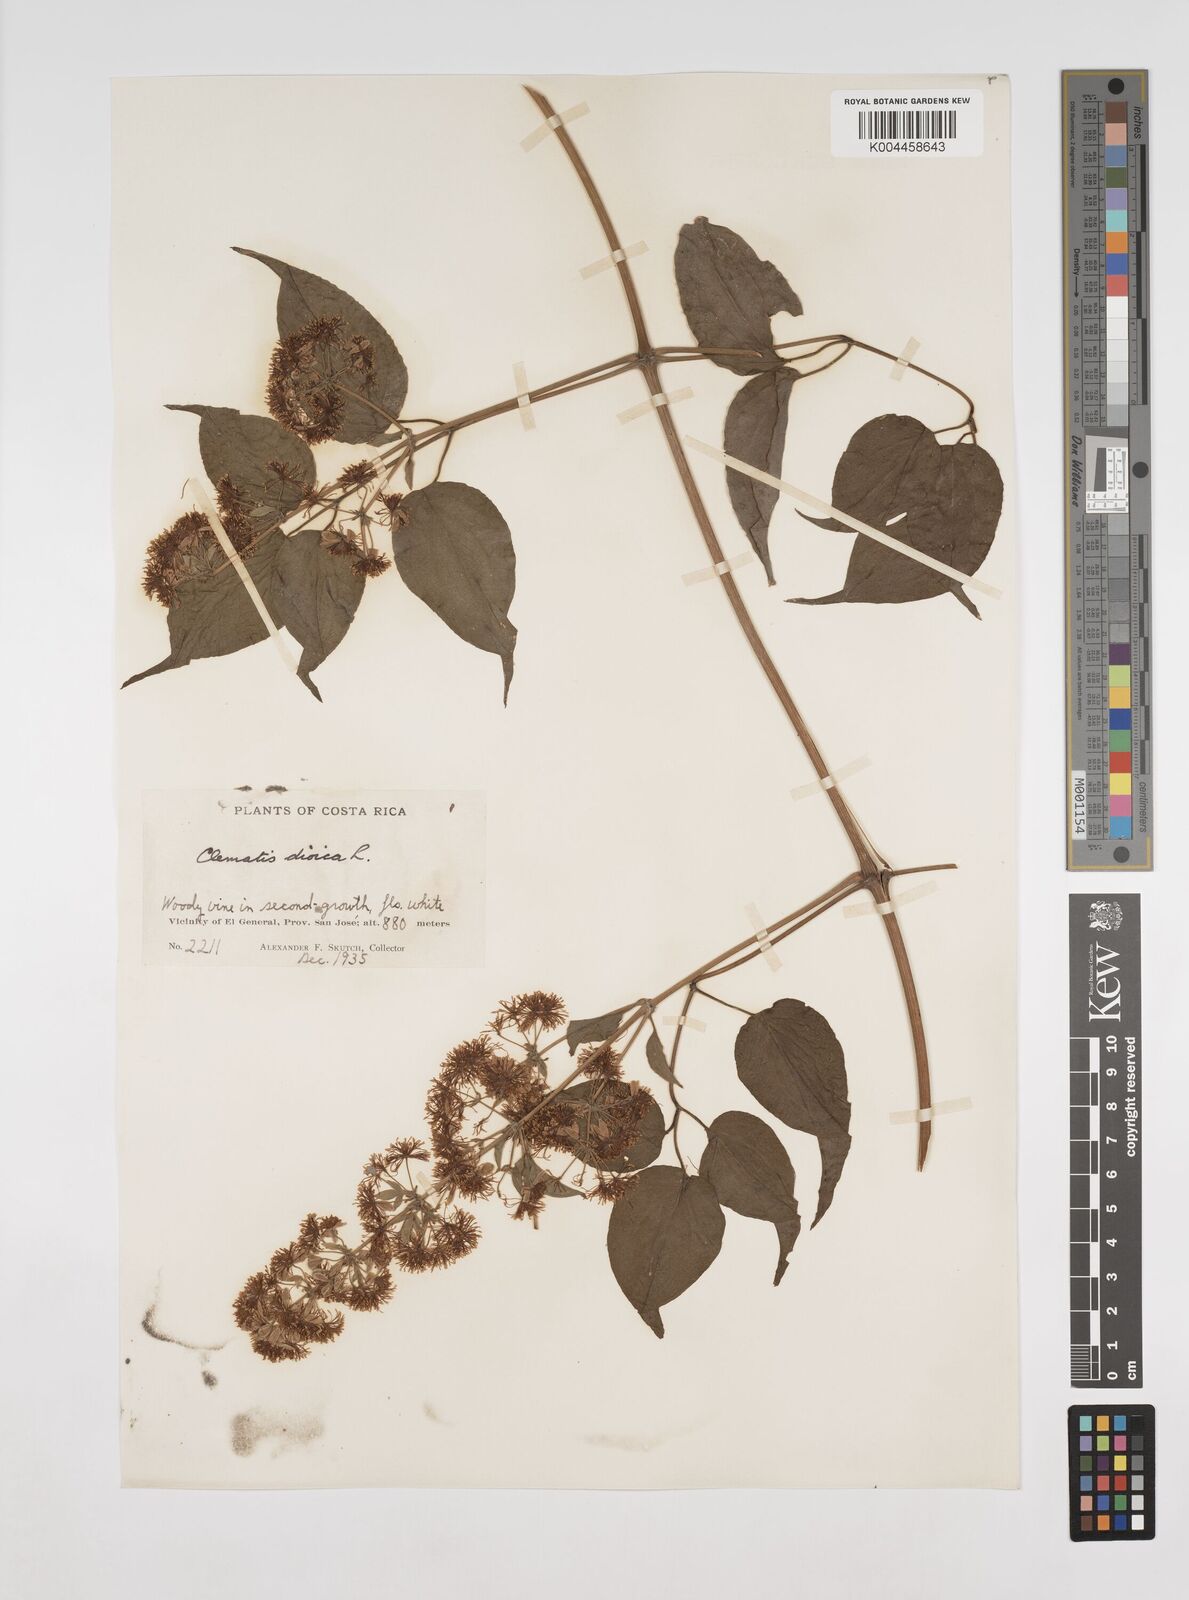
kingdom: Plantae
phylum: Tracheophyta
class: Magnoliopsida
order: Ranunculales
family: Ranunculaceae
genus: Clematis
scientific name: Clematis dioica
